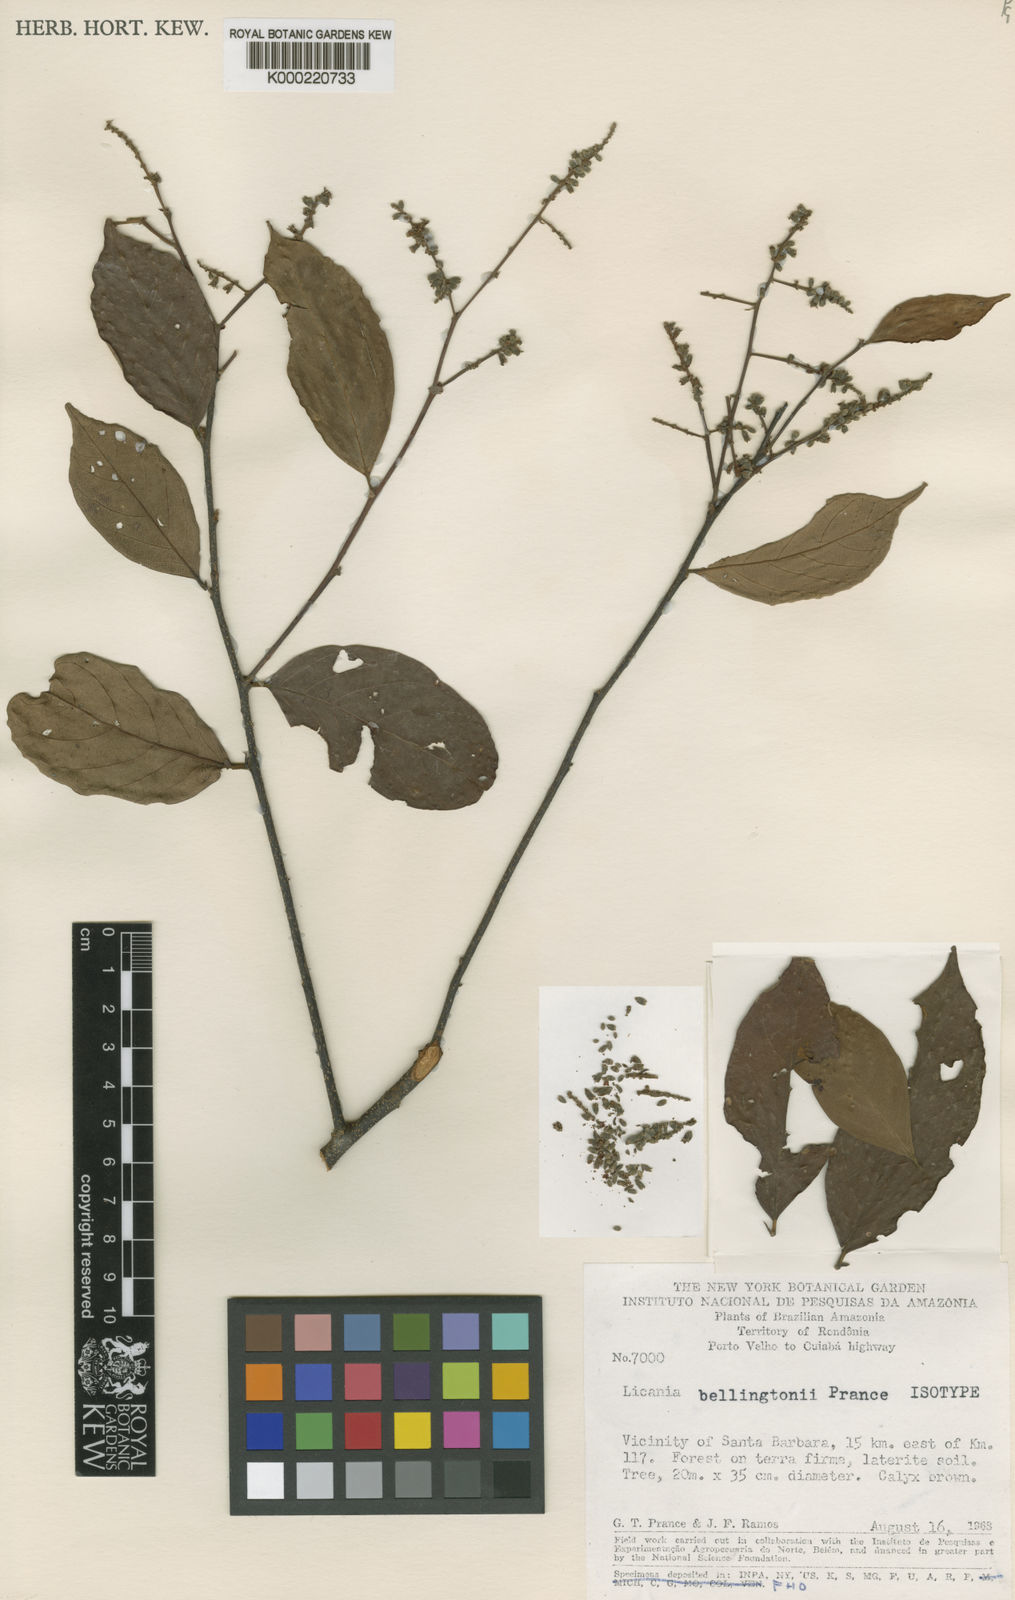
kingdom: Plantae
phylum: Tracheophyta
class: Magnoliopsida
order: Malpighiales
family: Chrysobalanaceae
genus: Licania
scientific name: Licania bellingtonii
